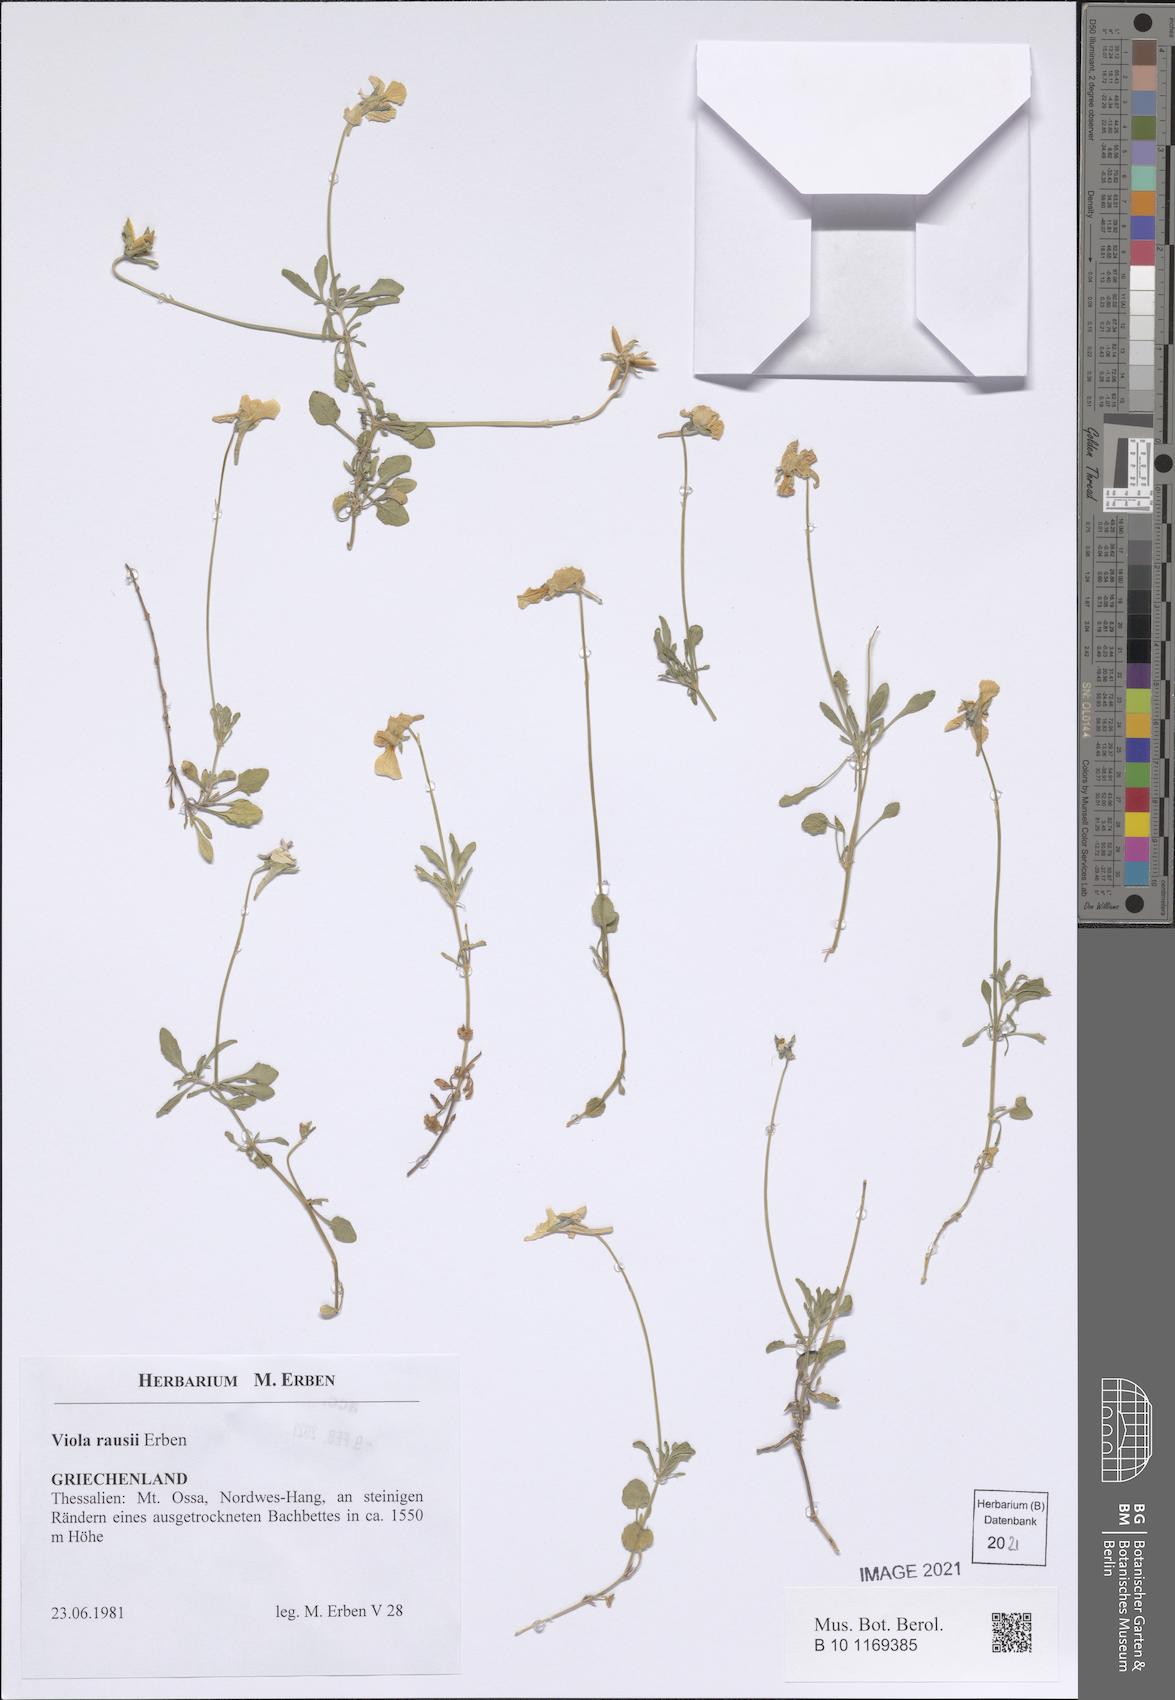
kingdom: Plantae
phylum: Tracheophyta
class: Magnoliopsida
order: Malpighiales
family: Violaceae
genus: Viola
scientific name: Viola rausii
